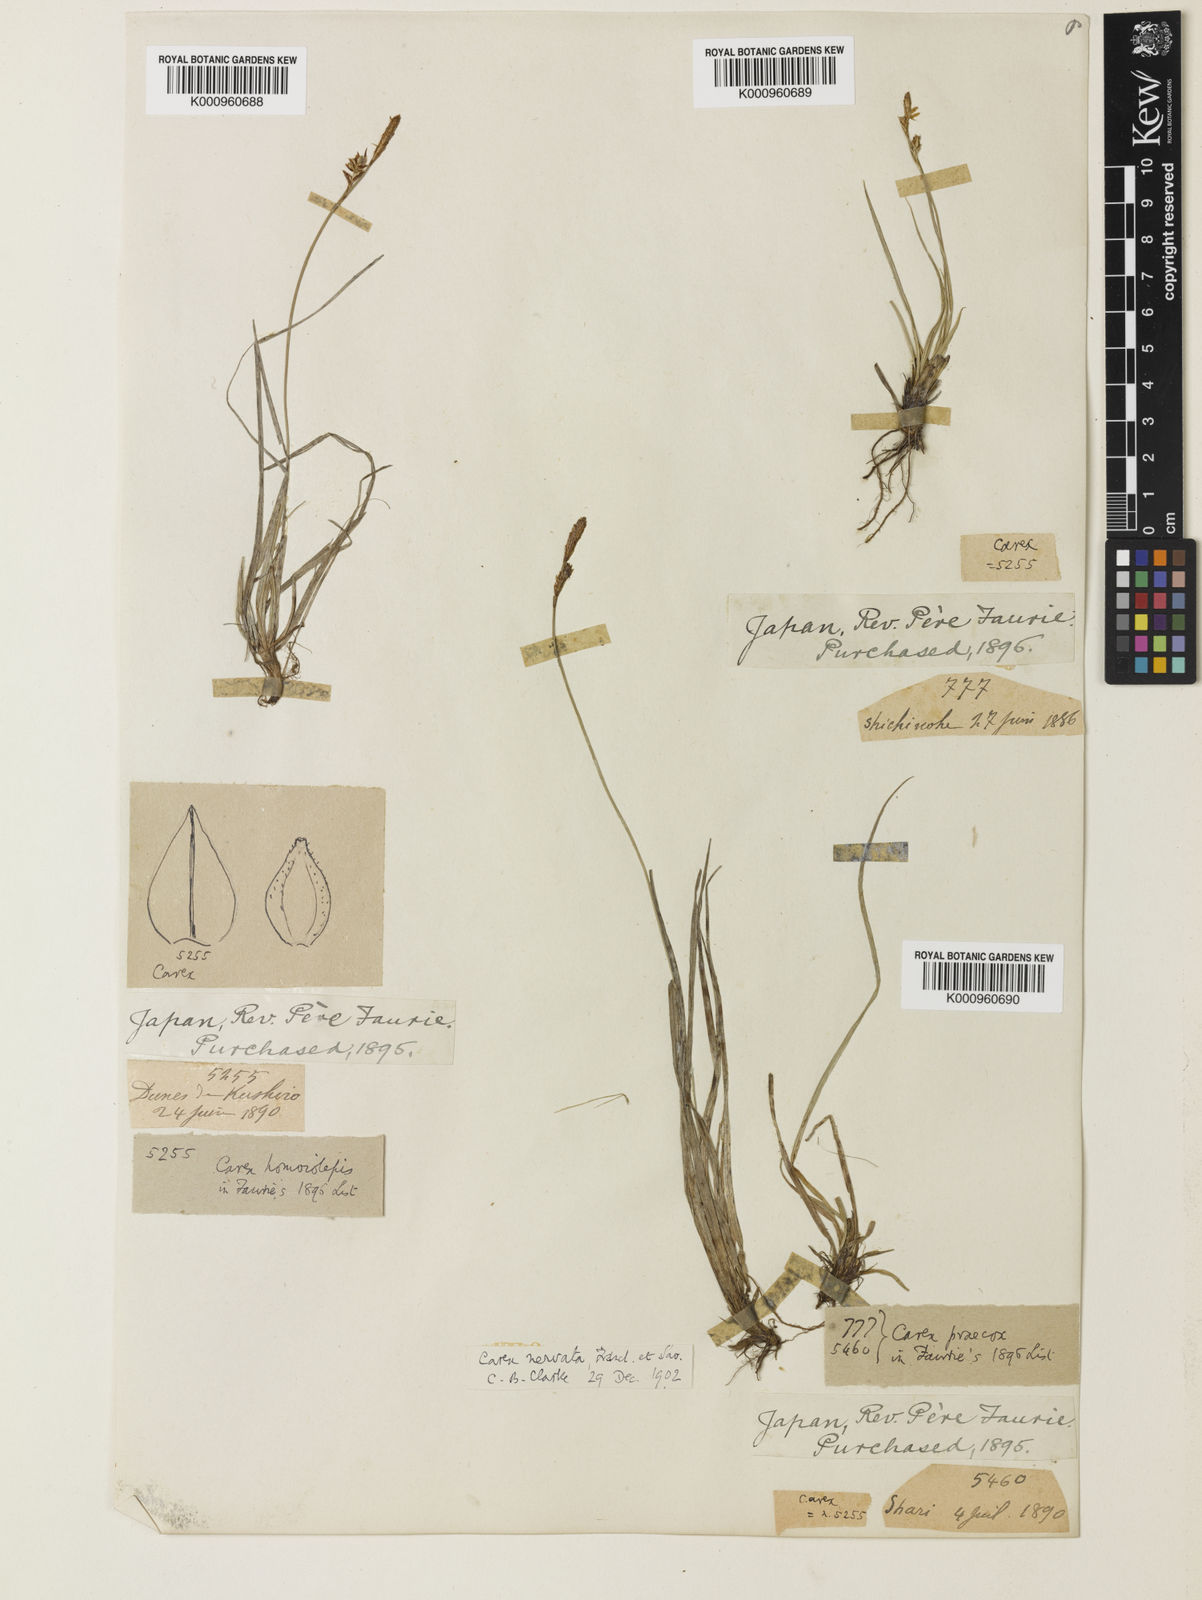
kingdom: Plantae
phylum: Tracheophyta
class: Liliopsida
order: Poales
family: Cyperaceae
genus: Carex
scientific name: Carex caryophyllea
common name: Spring sedge
